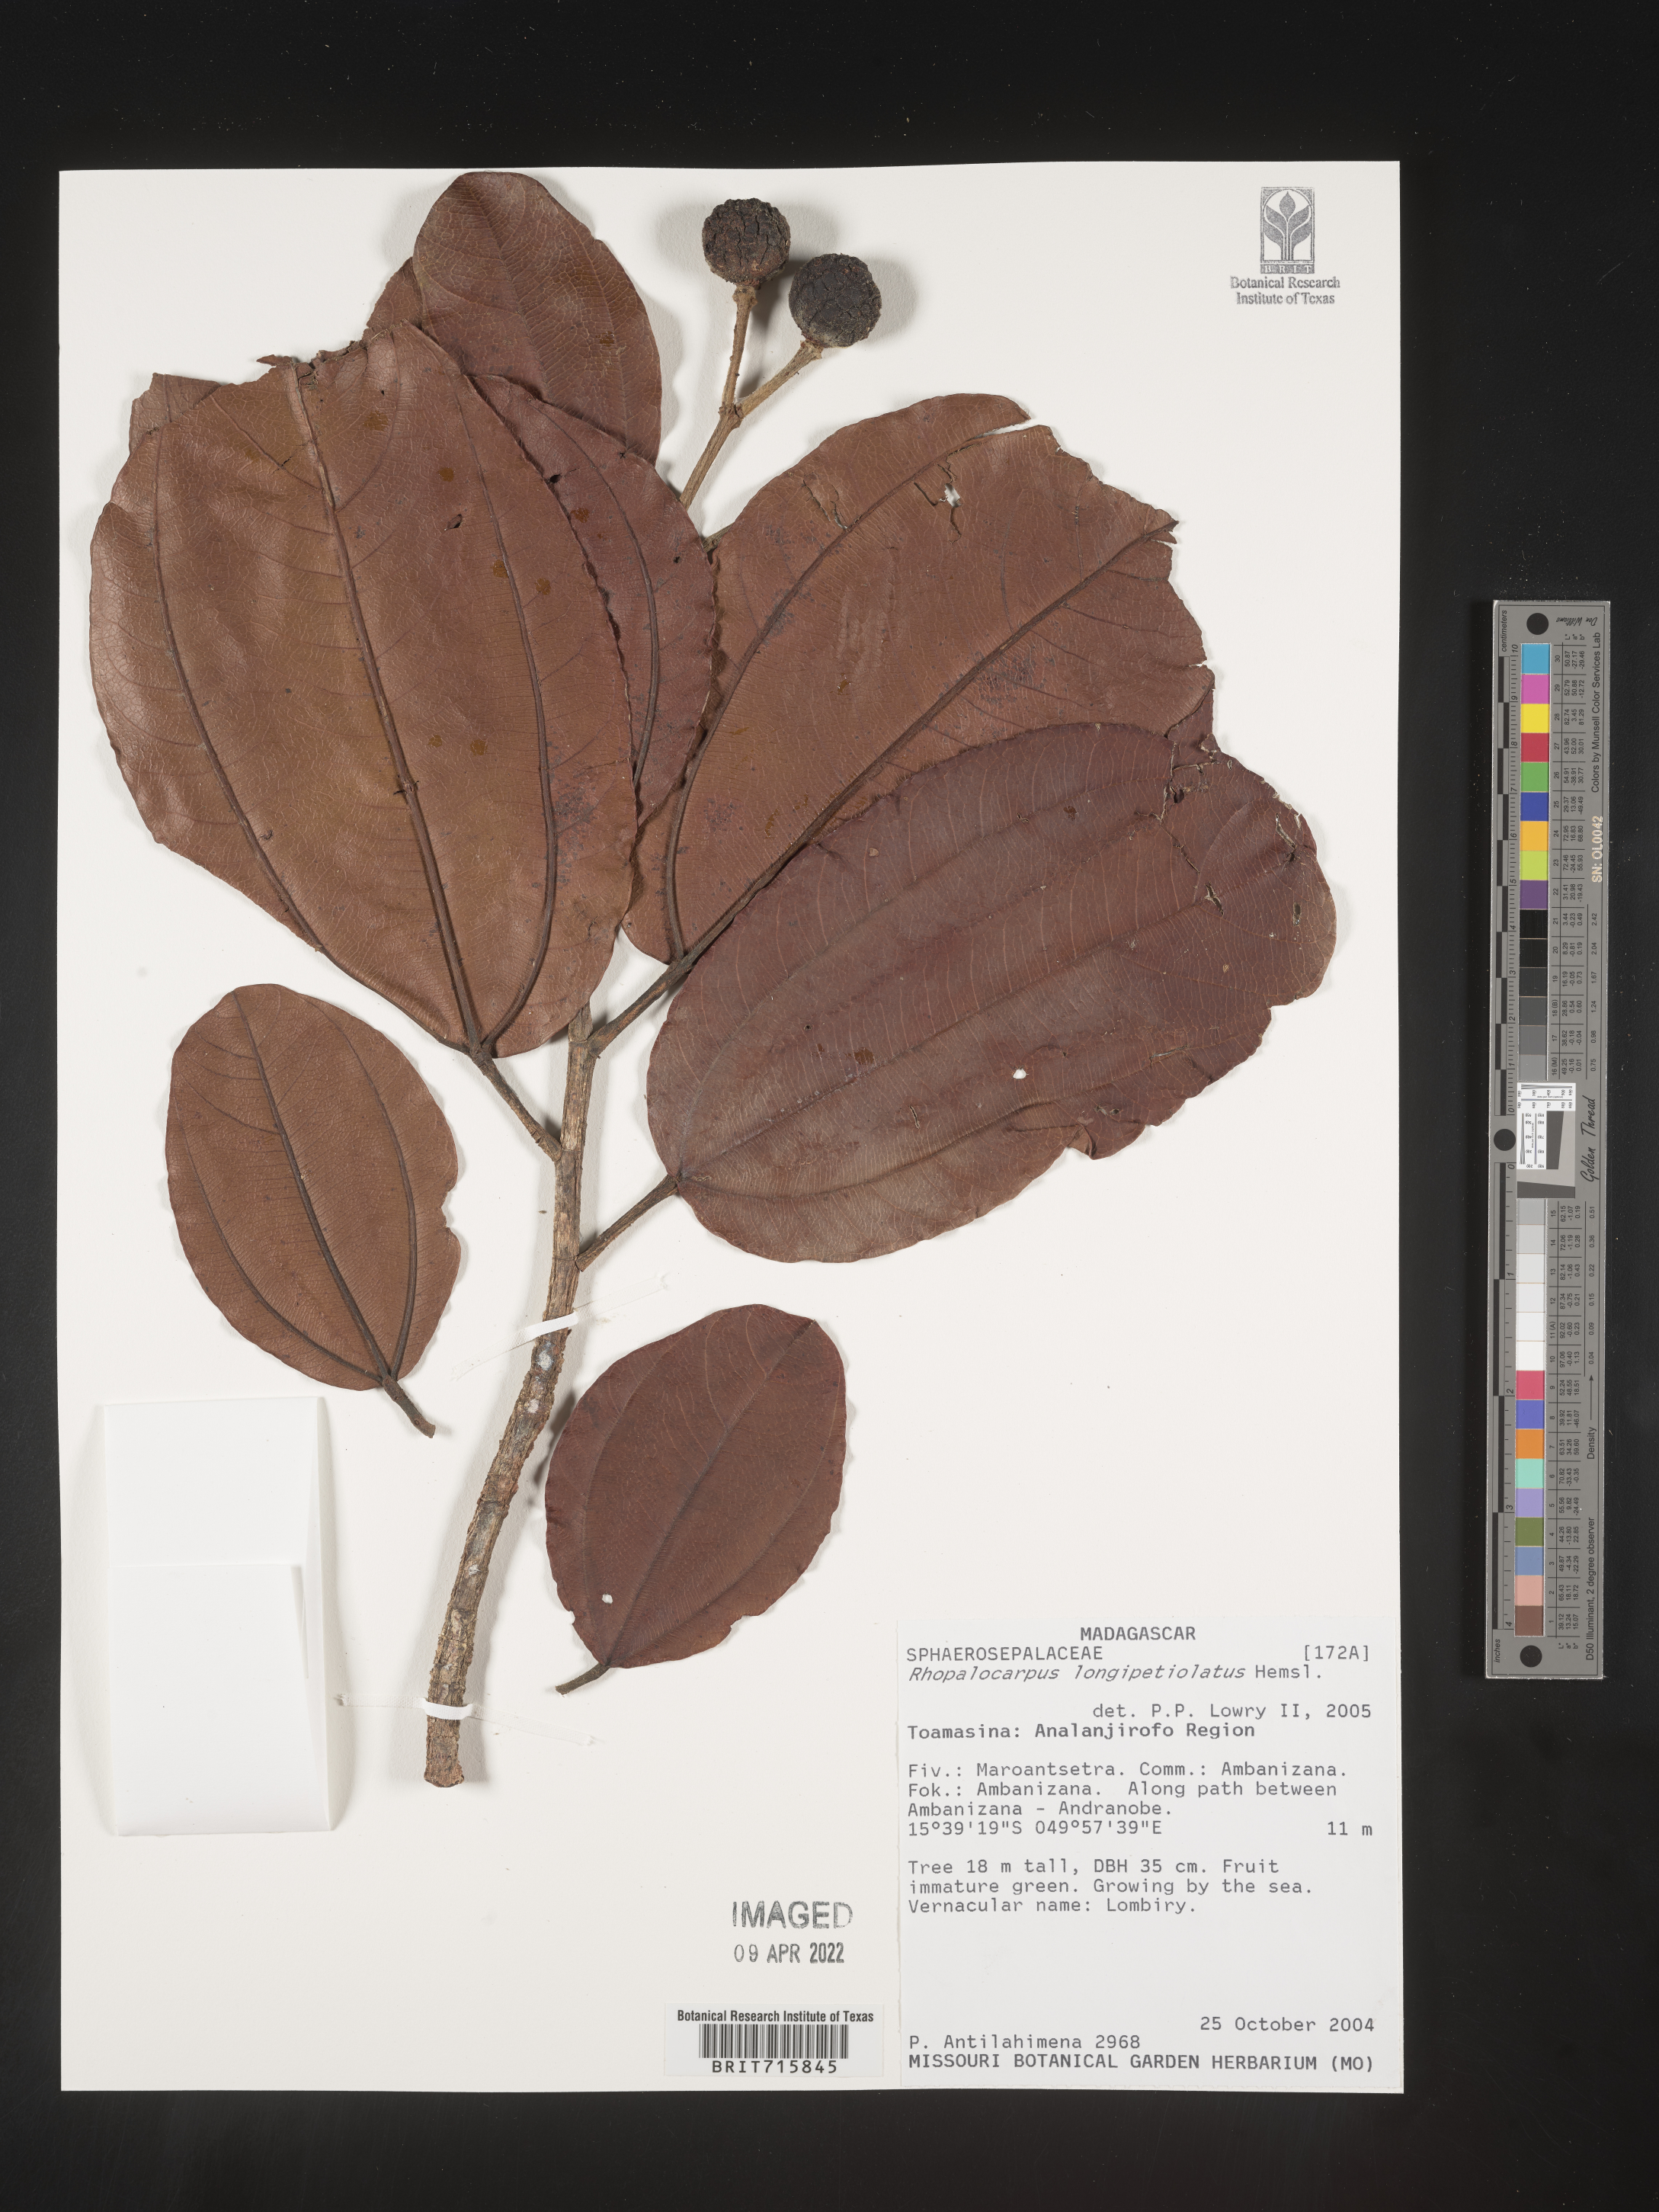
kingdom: Plantae
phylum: Tracheophyta
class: Magnoliopsida
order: Malvales
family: Sphaerosepalaceae
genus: Rhopalocarpus
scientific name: Rhopalocarpus
